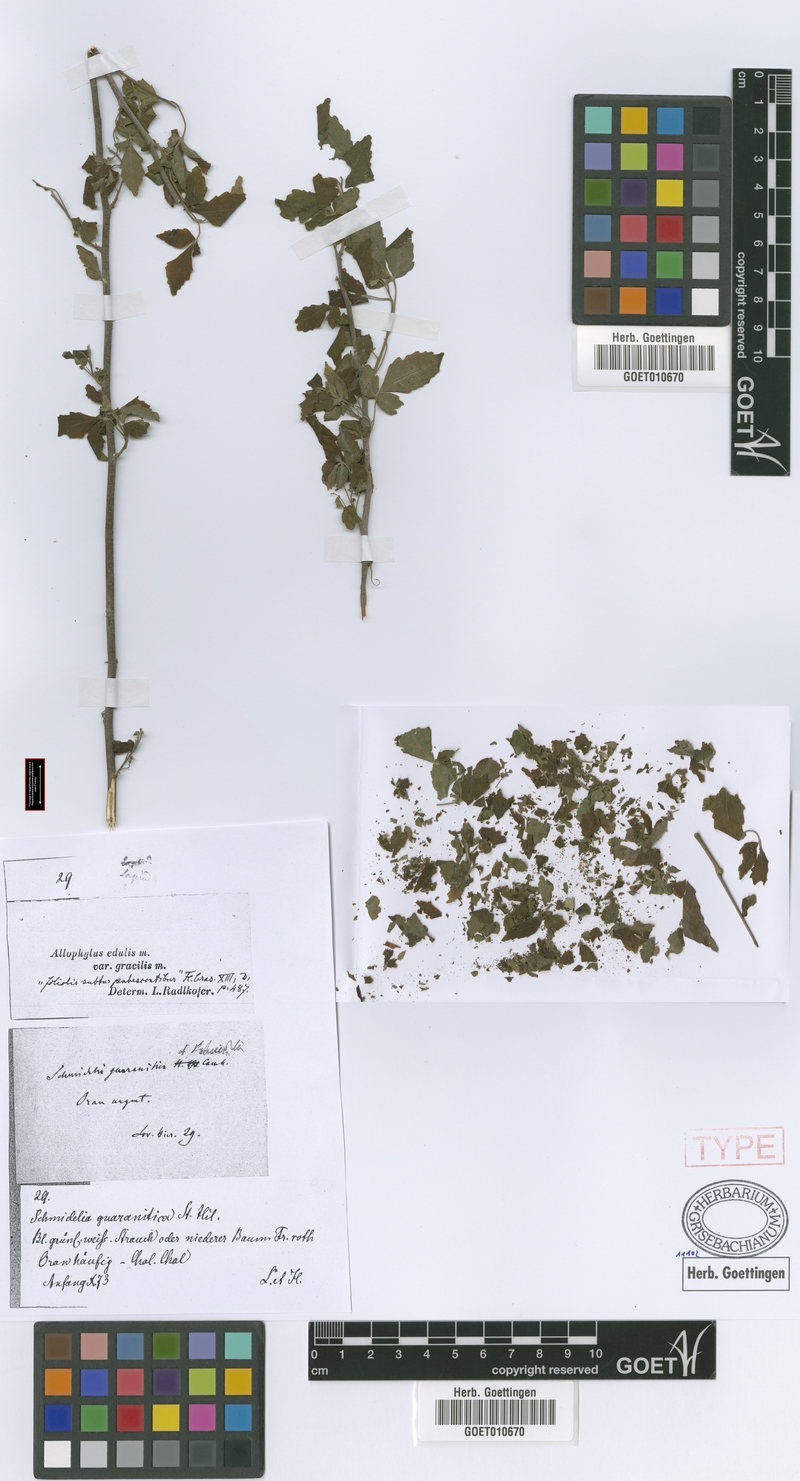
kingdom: Plantae
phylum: Tracheophyta
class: Magnoliopsida
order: Sapindales
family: Sapindaceae
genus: Allophylus
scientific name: Allophylus edulis
